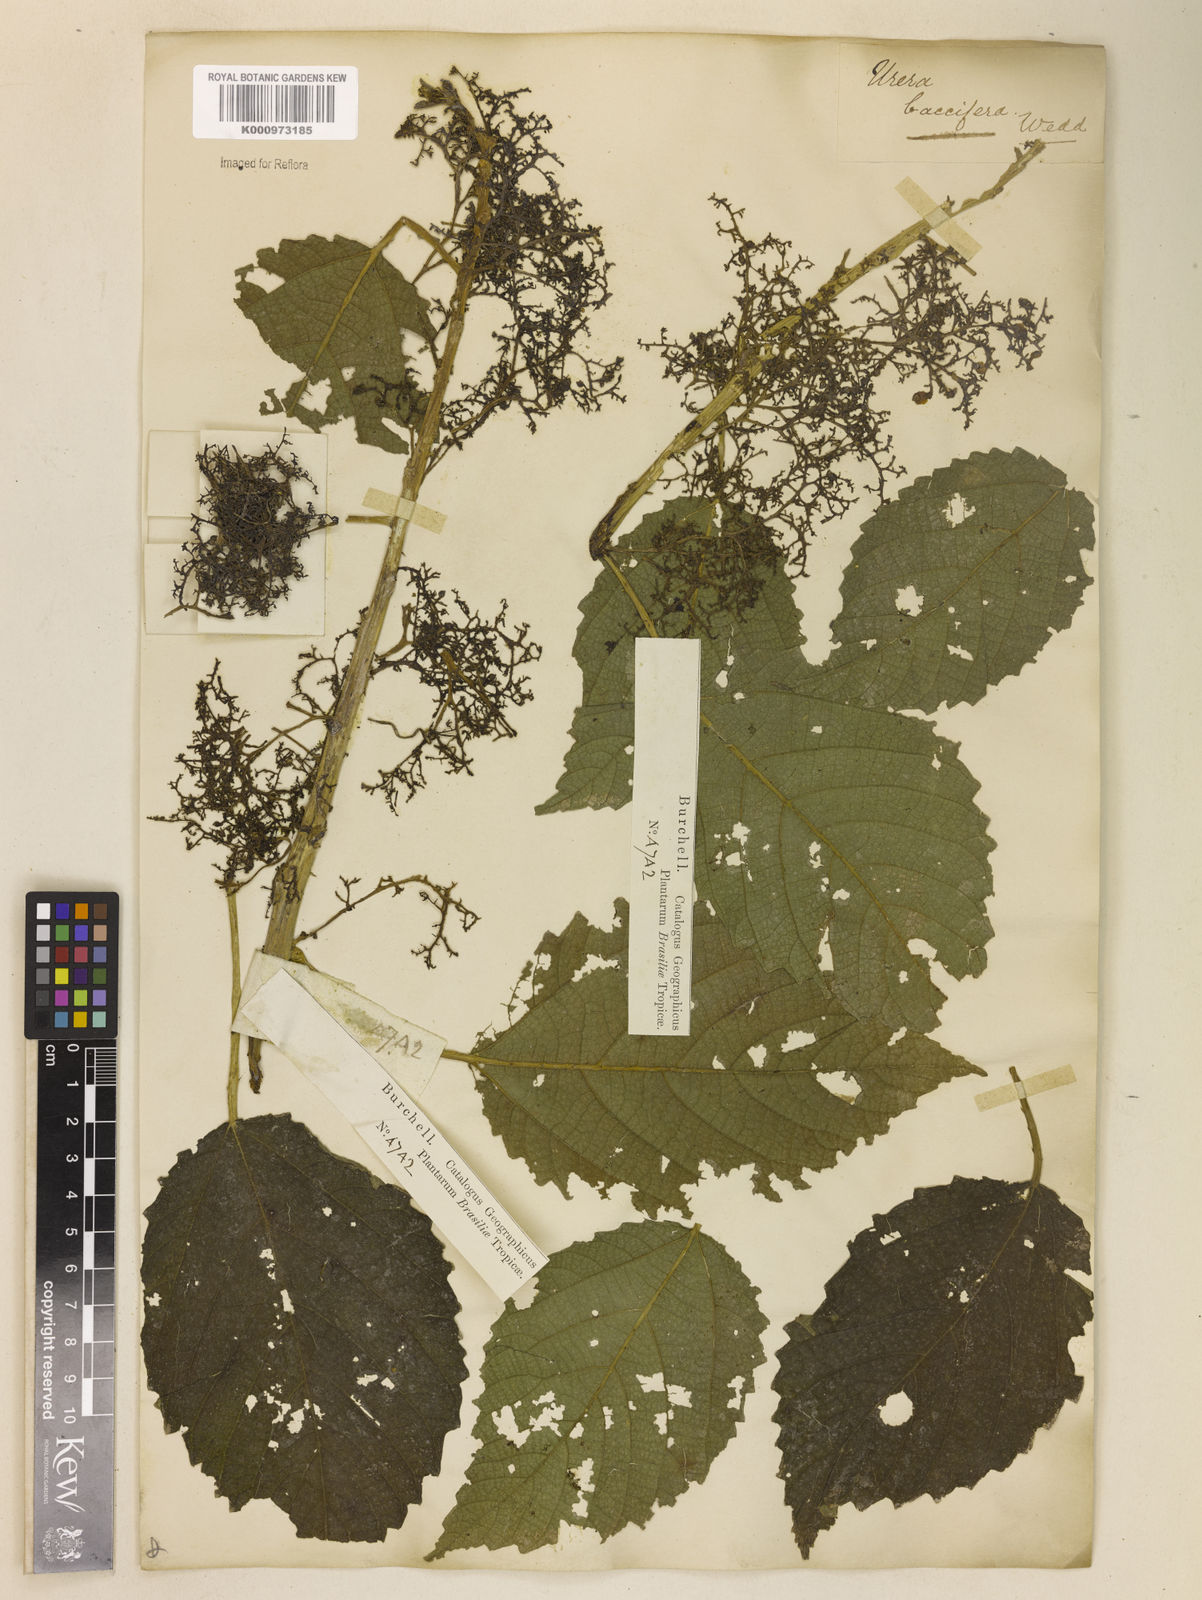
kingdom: Plantae
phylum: Tracheophyta
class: Magnoliopsida
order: Rosales
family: Urticaceae
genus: Urera
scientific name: Urera baccifera
